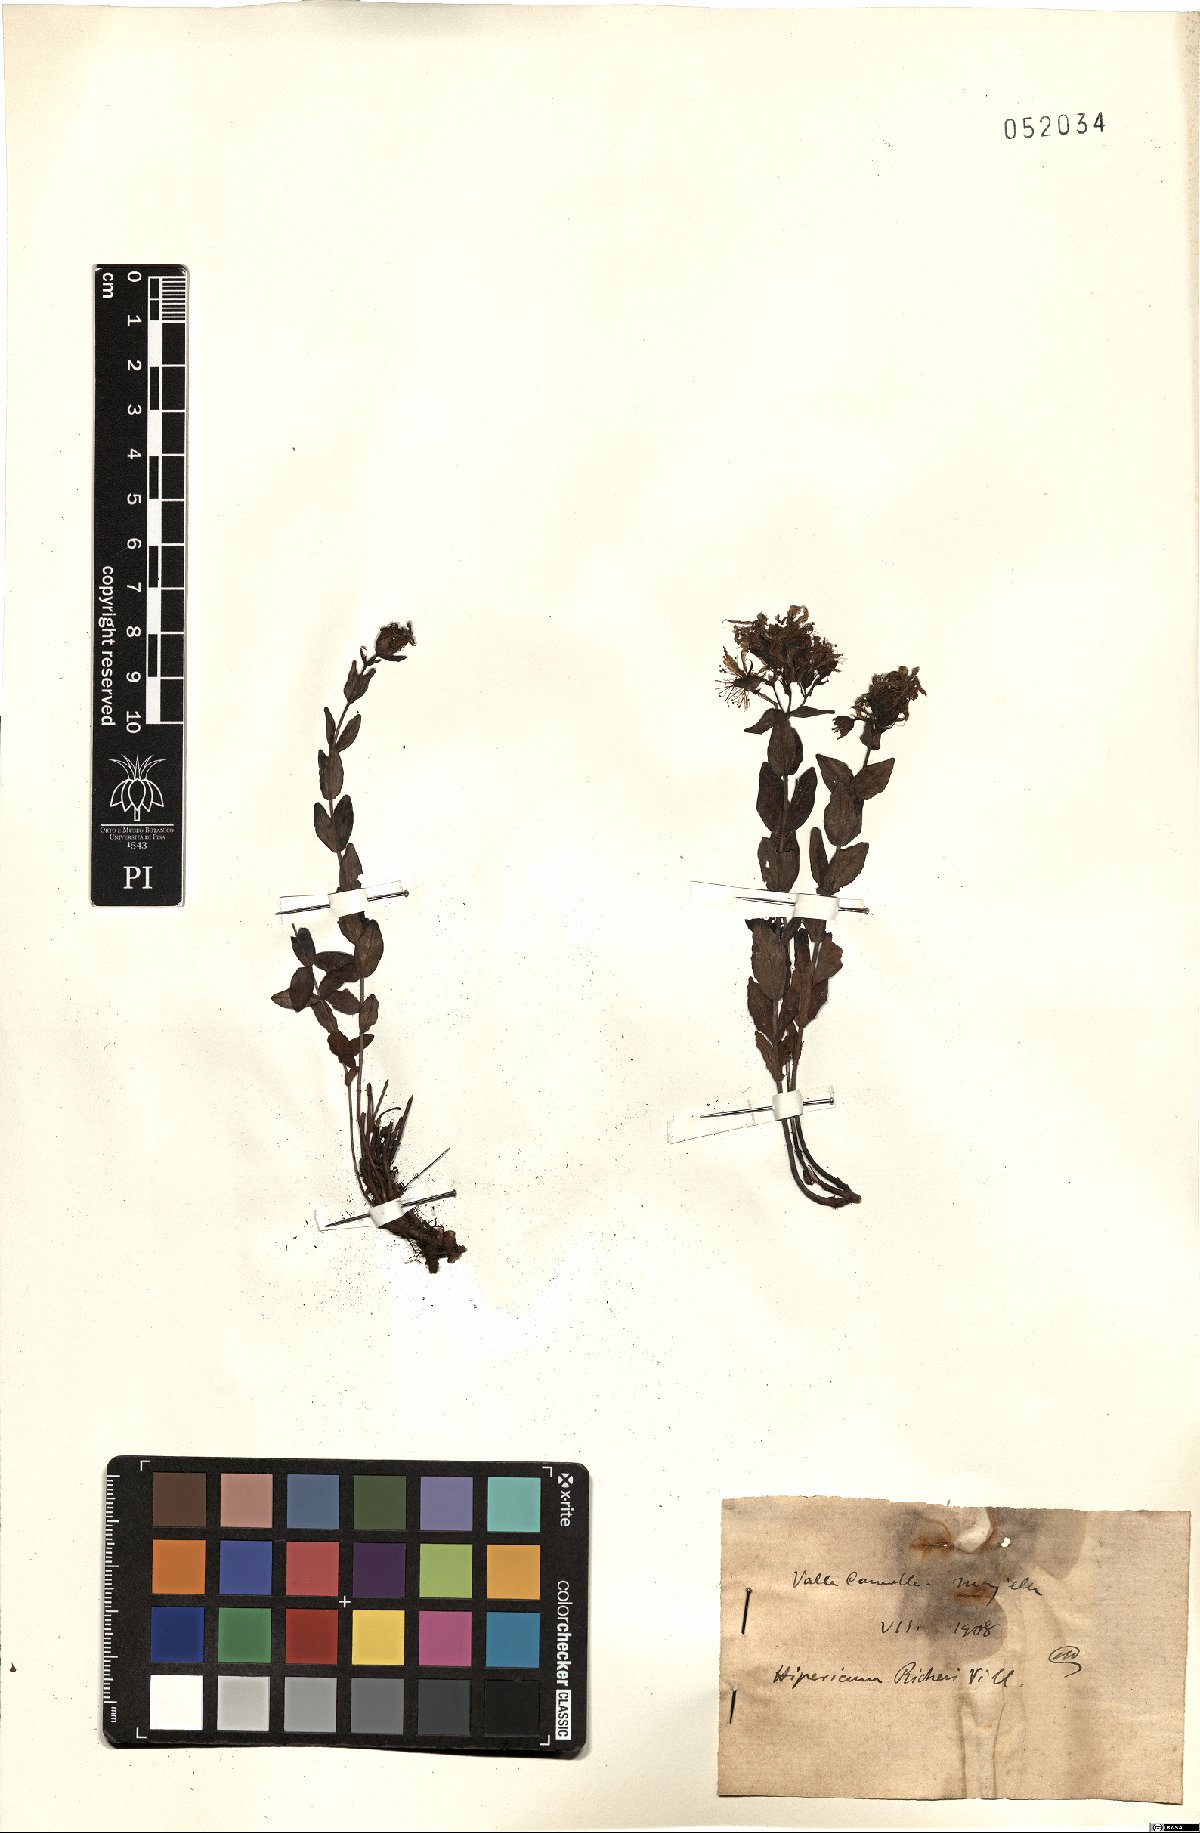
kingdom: Plantae
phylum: Tracheophyta
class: Magnoliopsida
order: Malpighiales
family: Hypericaceae
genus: Hypericum
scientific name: Hypericum richeri
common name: Alpine st john's-wort
